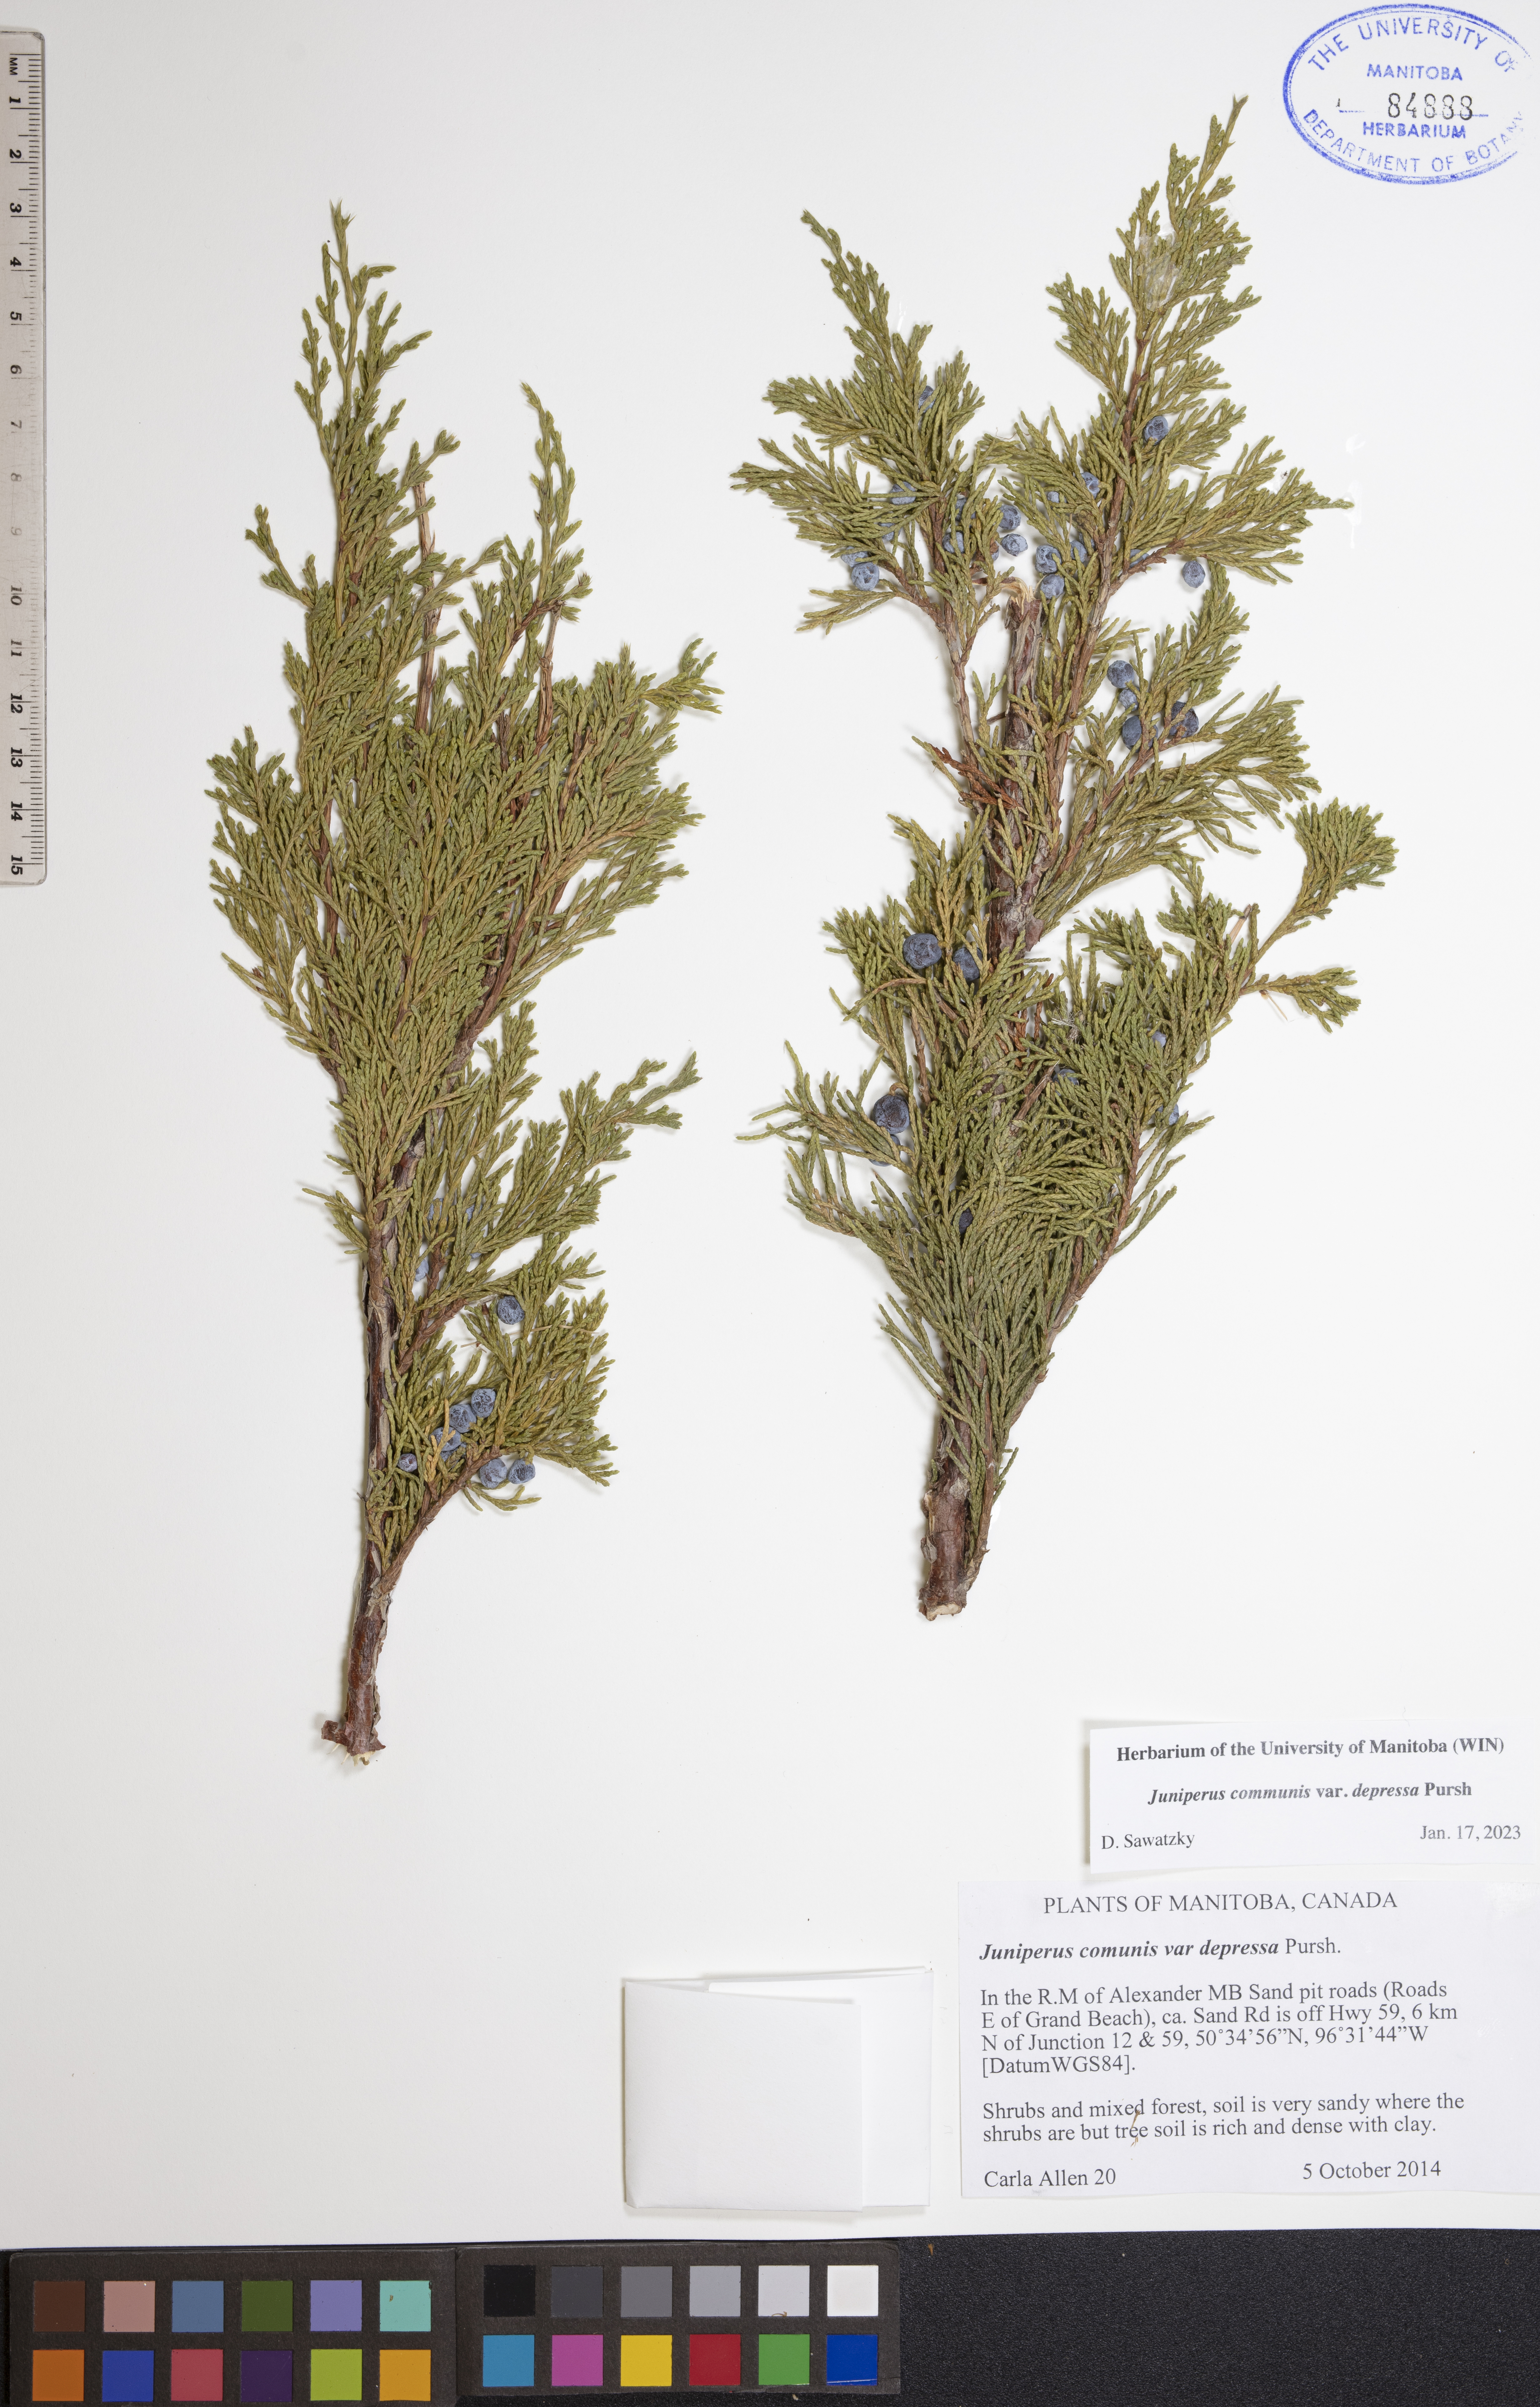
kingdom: Plantae
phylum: Tracheophyta
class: Pinopsida
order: Pinales
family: Cupressaceae
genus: Juniperus
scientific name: Juniperus communis
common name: Common juniper
